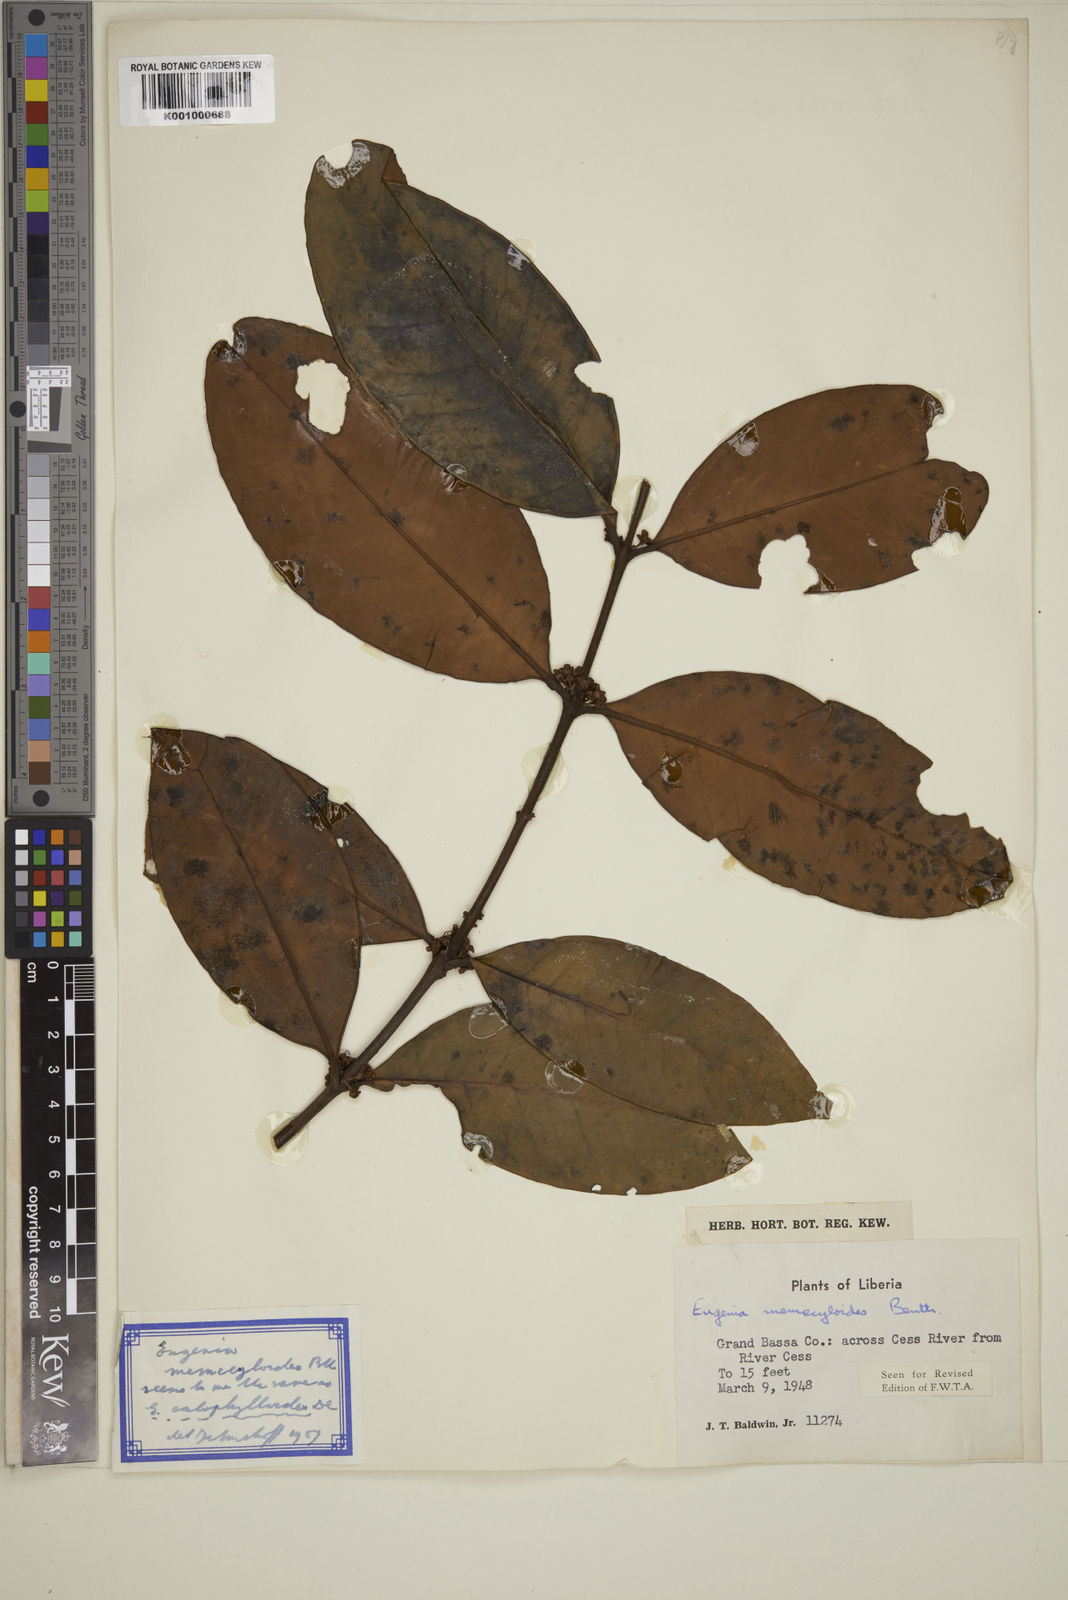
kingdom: Plantae
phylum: Tracheophyta
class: Magnoliopsida
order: Myrtales
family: Myrtaceae
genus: Eugenia
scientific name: Eugenia memecyloides
